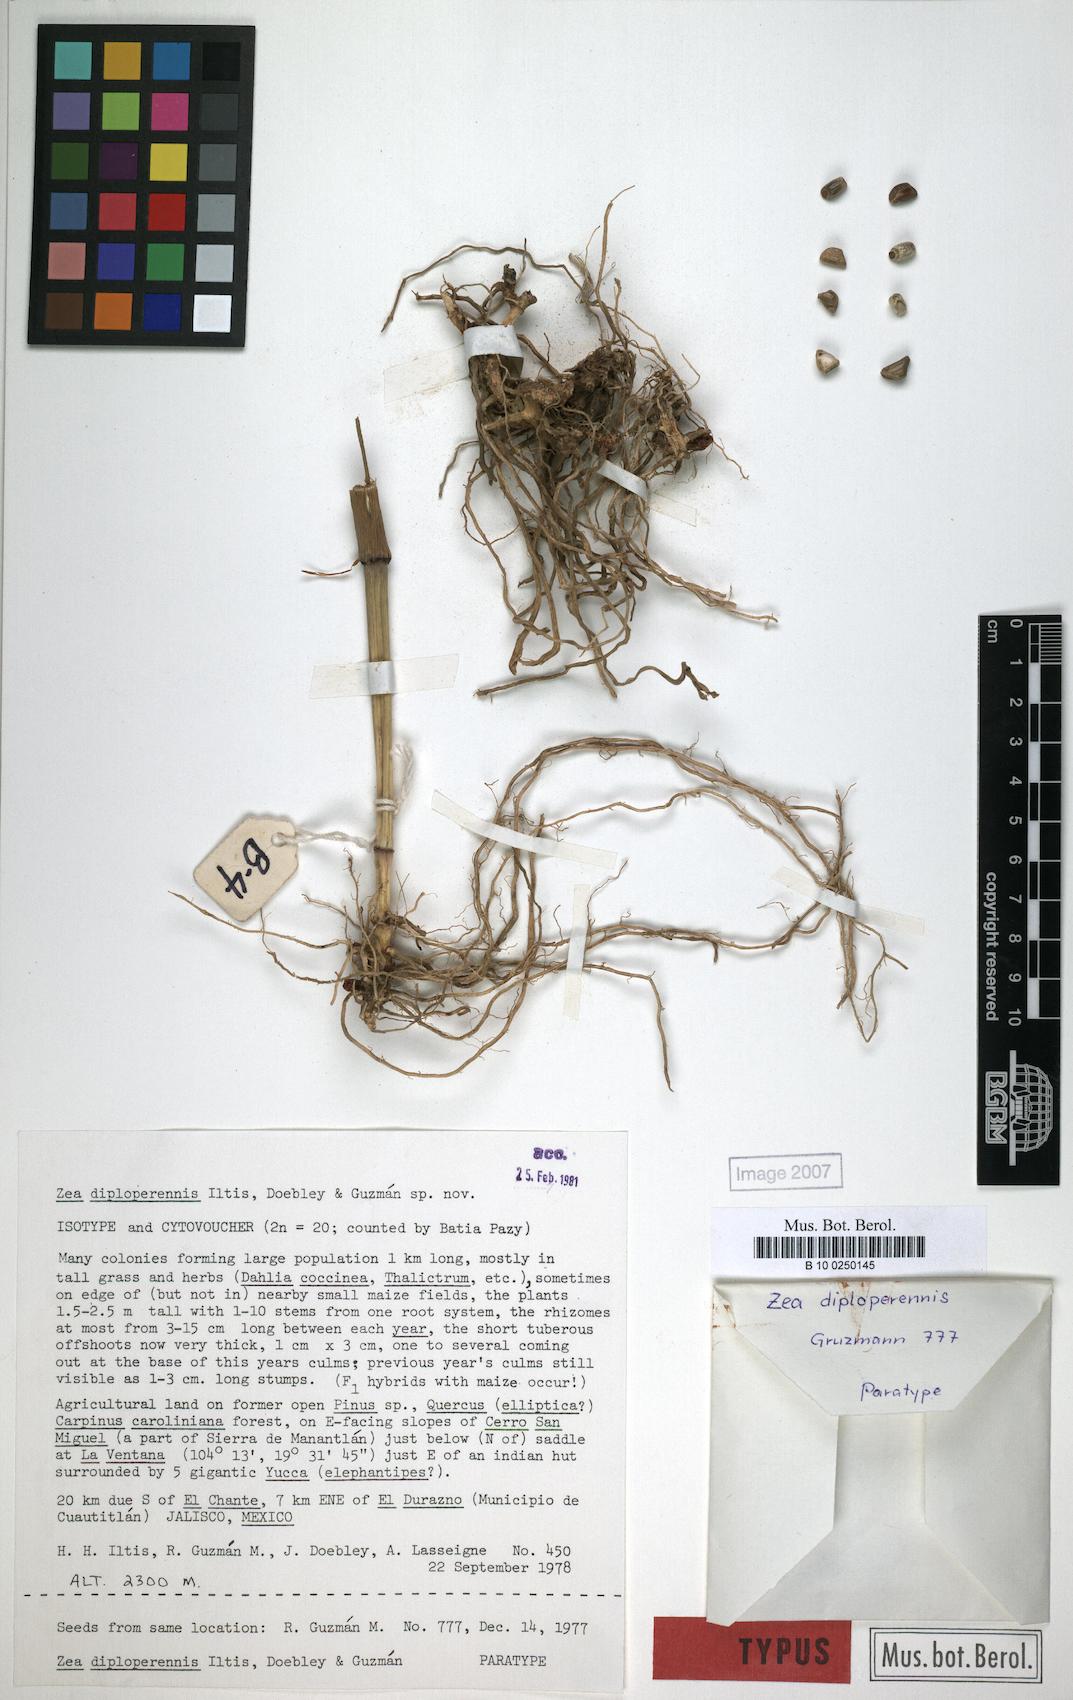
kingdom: Plantae
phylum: Tracheophyta
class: Liliopsida
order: Poales
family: Poaceae
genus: Zea
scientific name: Zea diploperennis
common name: Diploperennial teosinte
